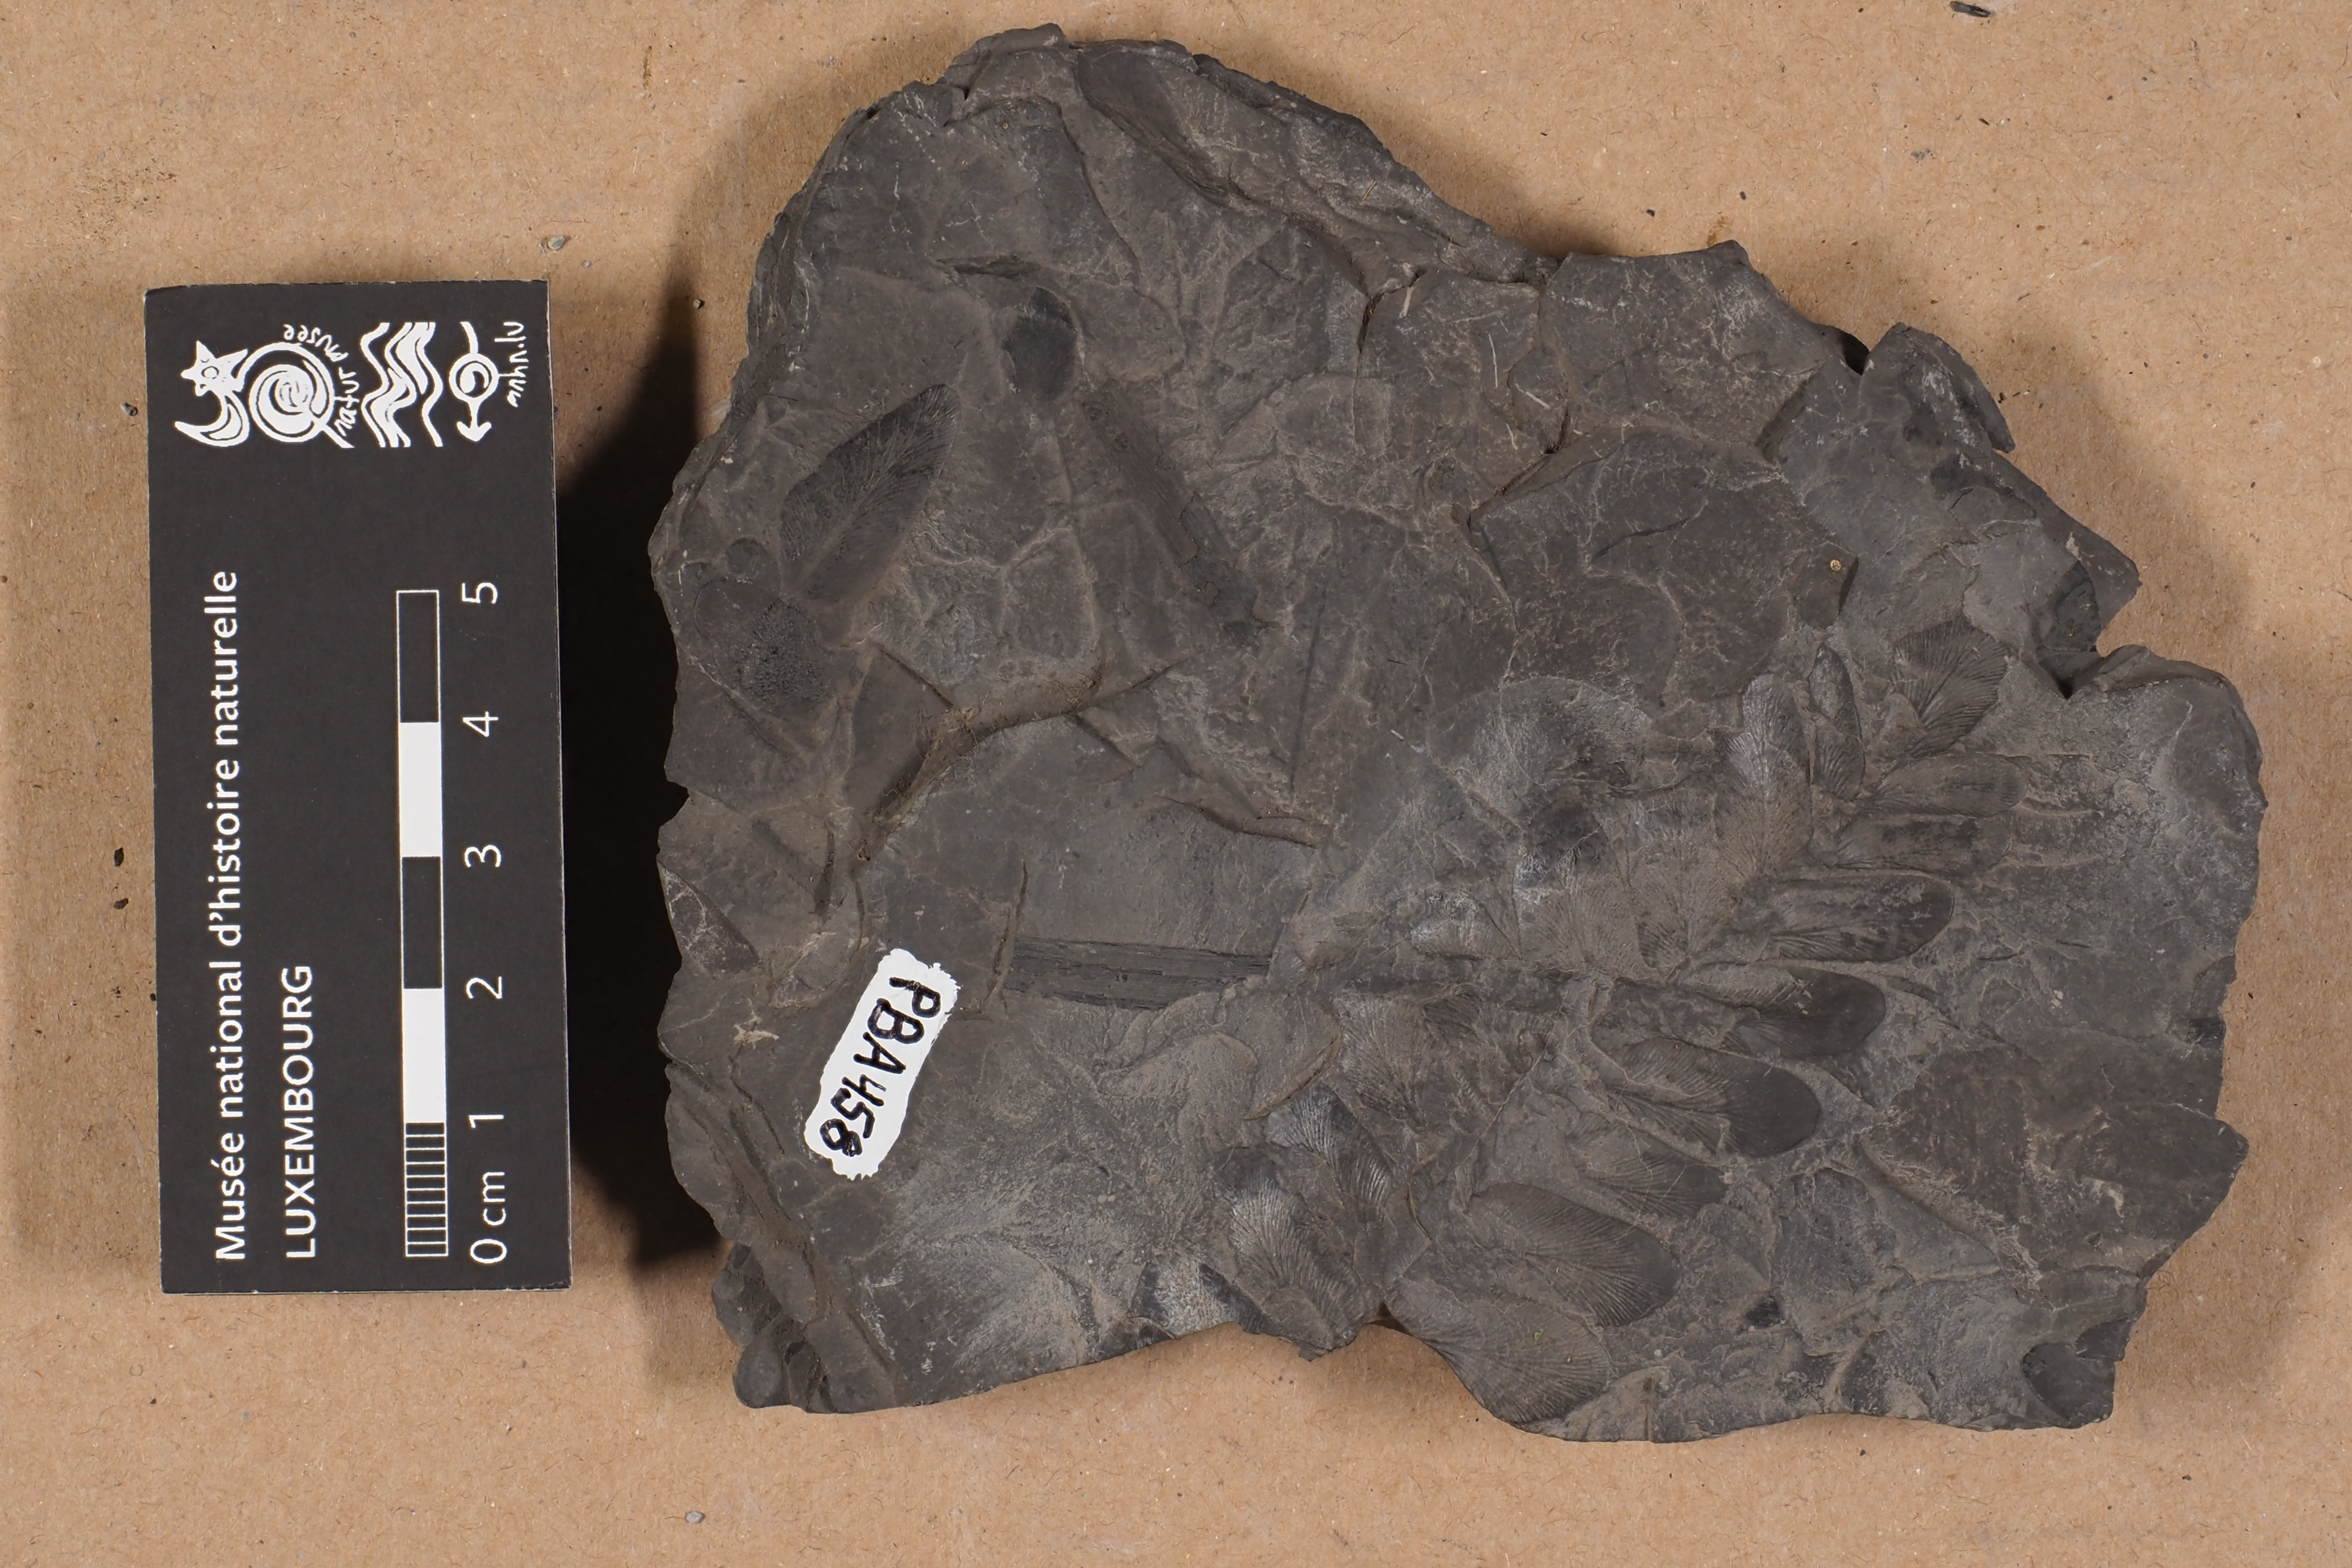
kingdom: Plantae
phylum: Tracheophyta
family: Pachytestaceae
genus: Neuropteris
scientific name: Neuropteris
